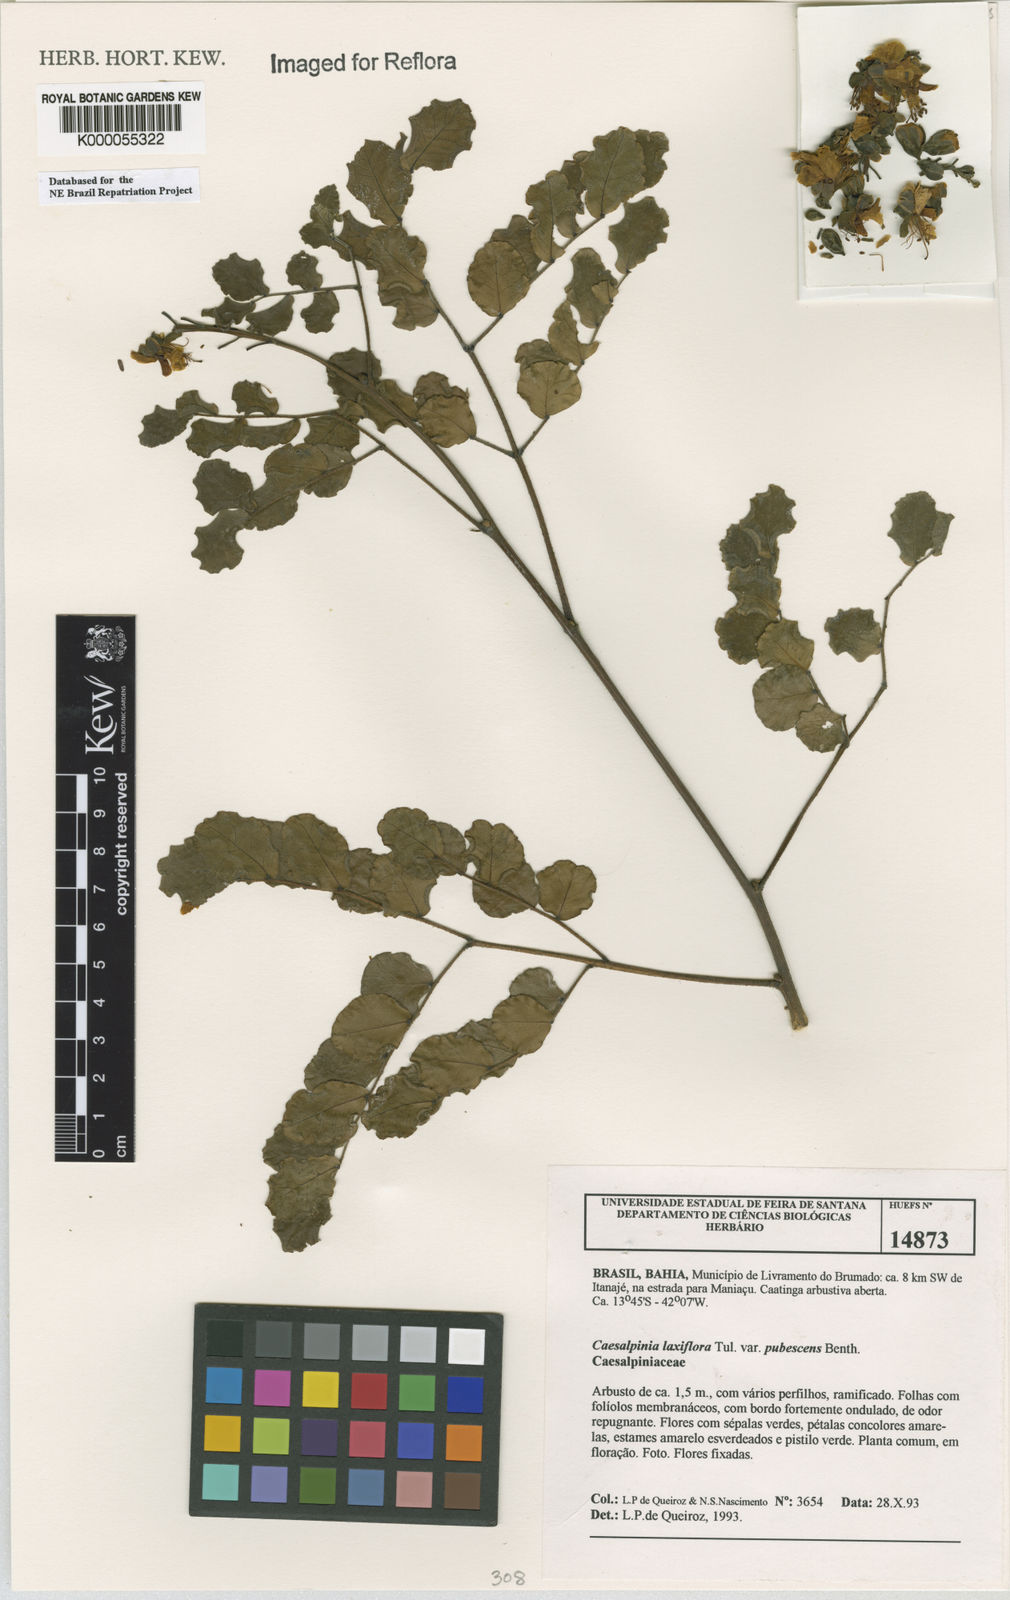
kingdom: Plantae
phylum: Tracheophyta
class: Magnoliopsida
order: Fabales
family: Fabaceae
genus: Cenostigma
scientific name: Cenostigma laxiflorum
